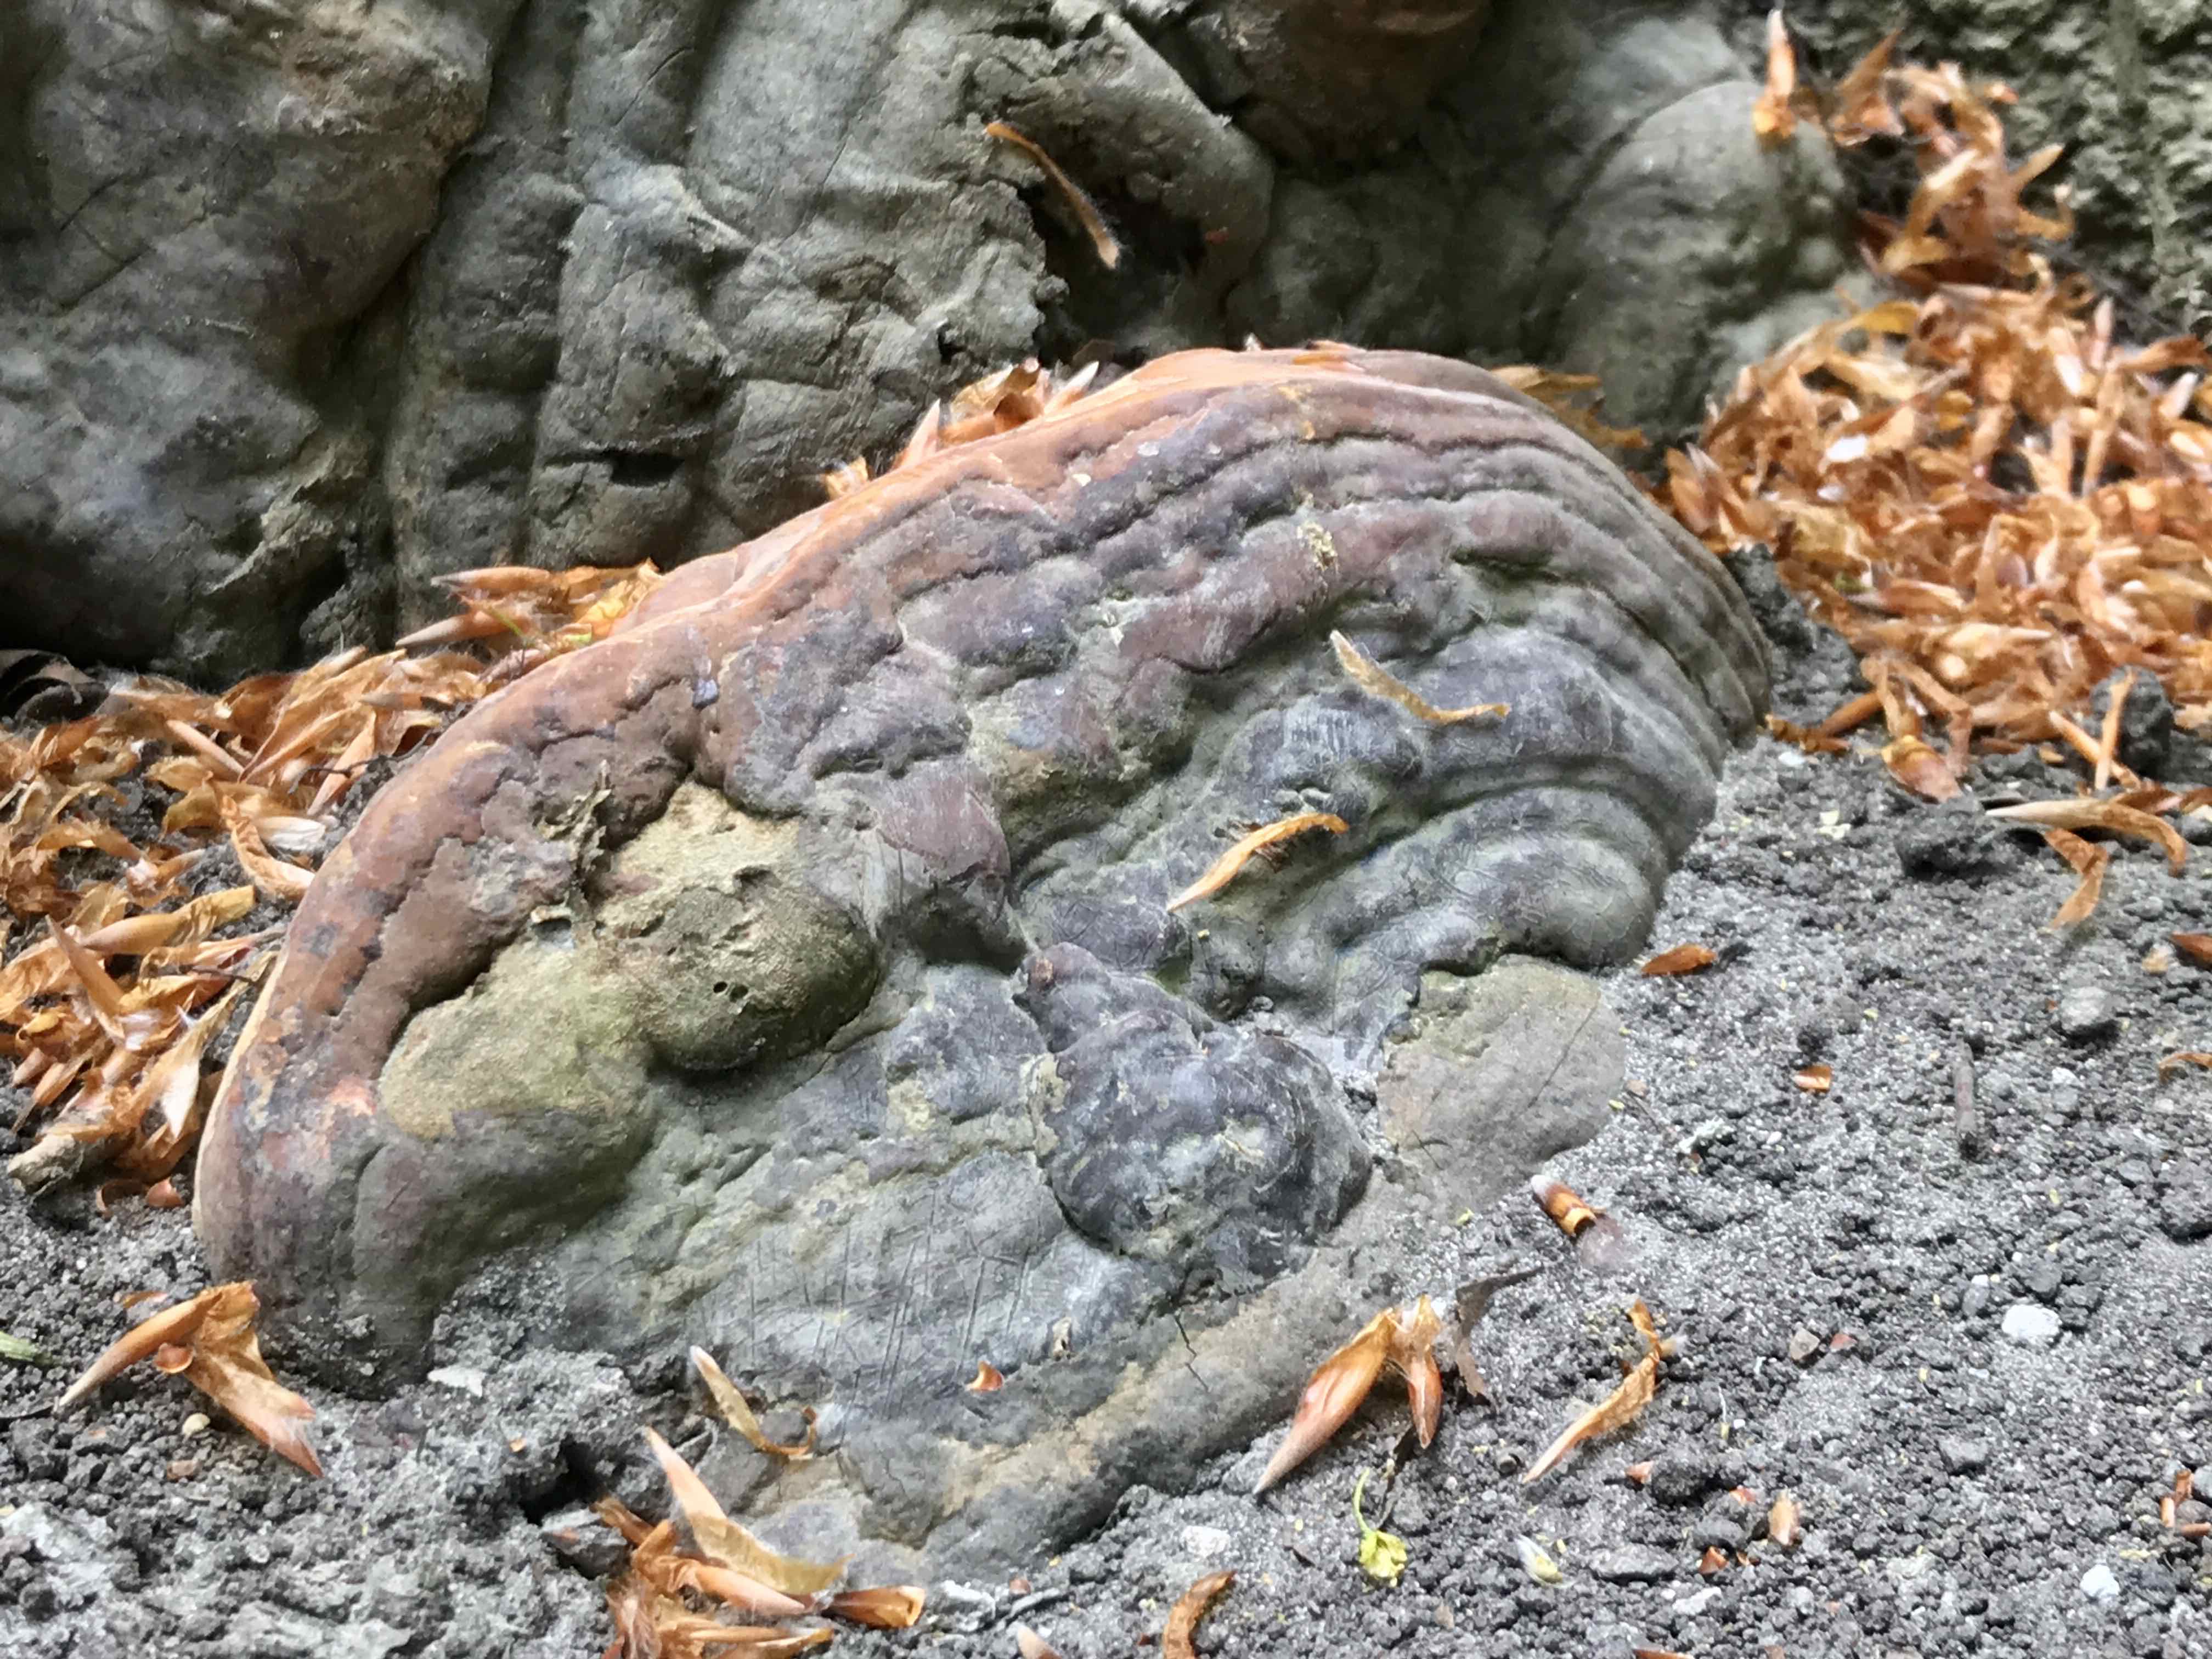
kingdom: Fungi
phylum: Basidiomycota
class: Agaricomycetes
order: Polyporales
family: Polyporaceae
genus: Ganoderma
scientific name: Ganoderma pfeifferi
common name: kobberrød lakporesvamp
